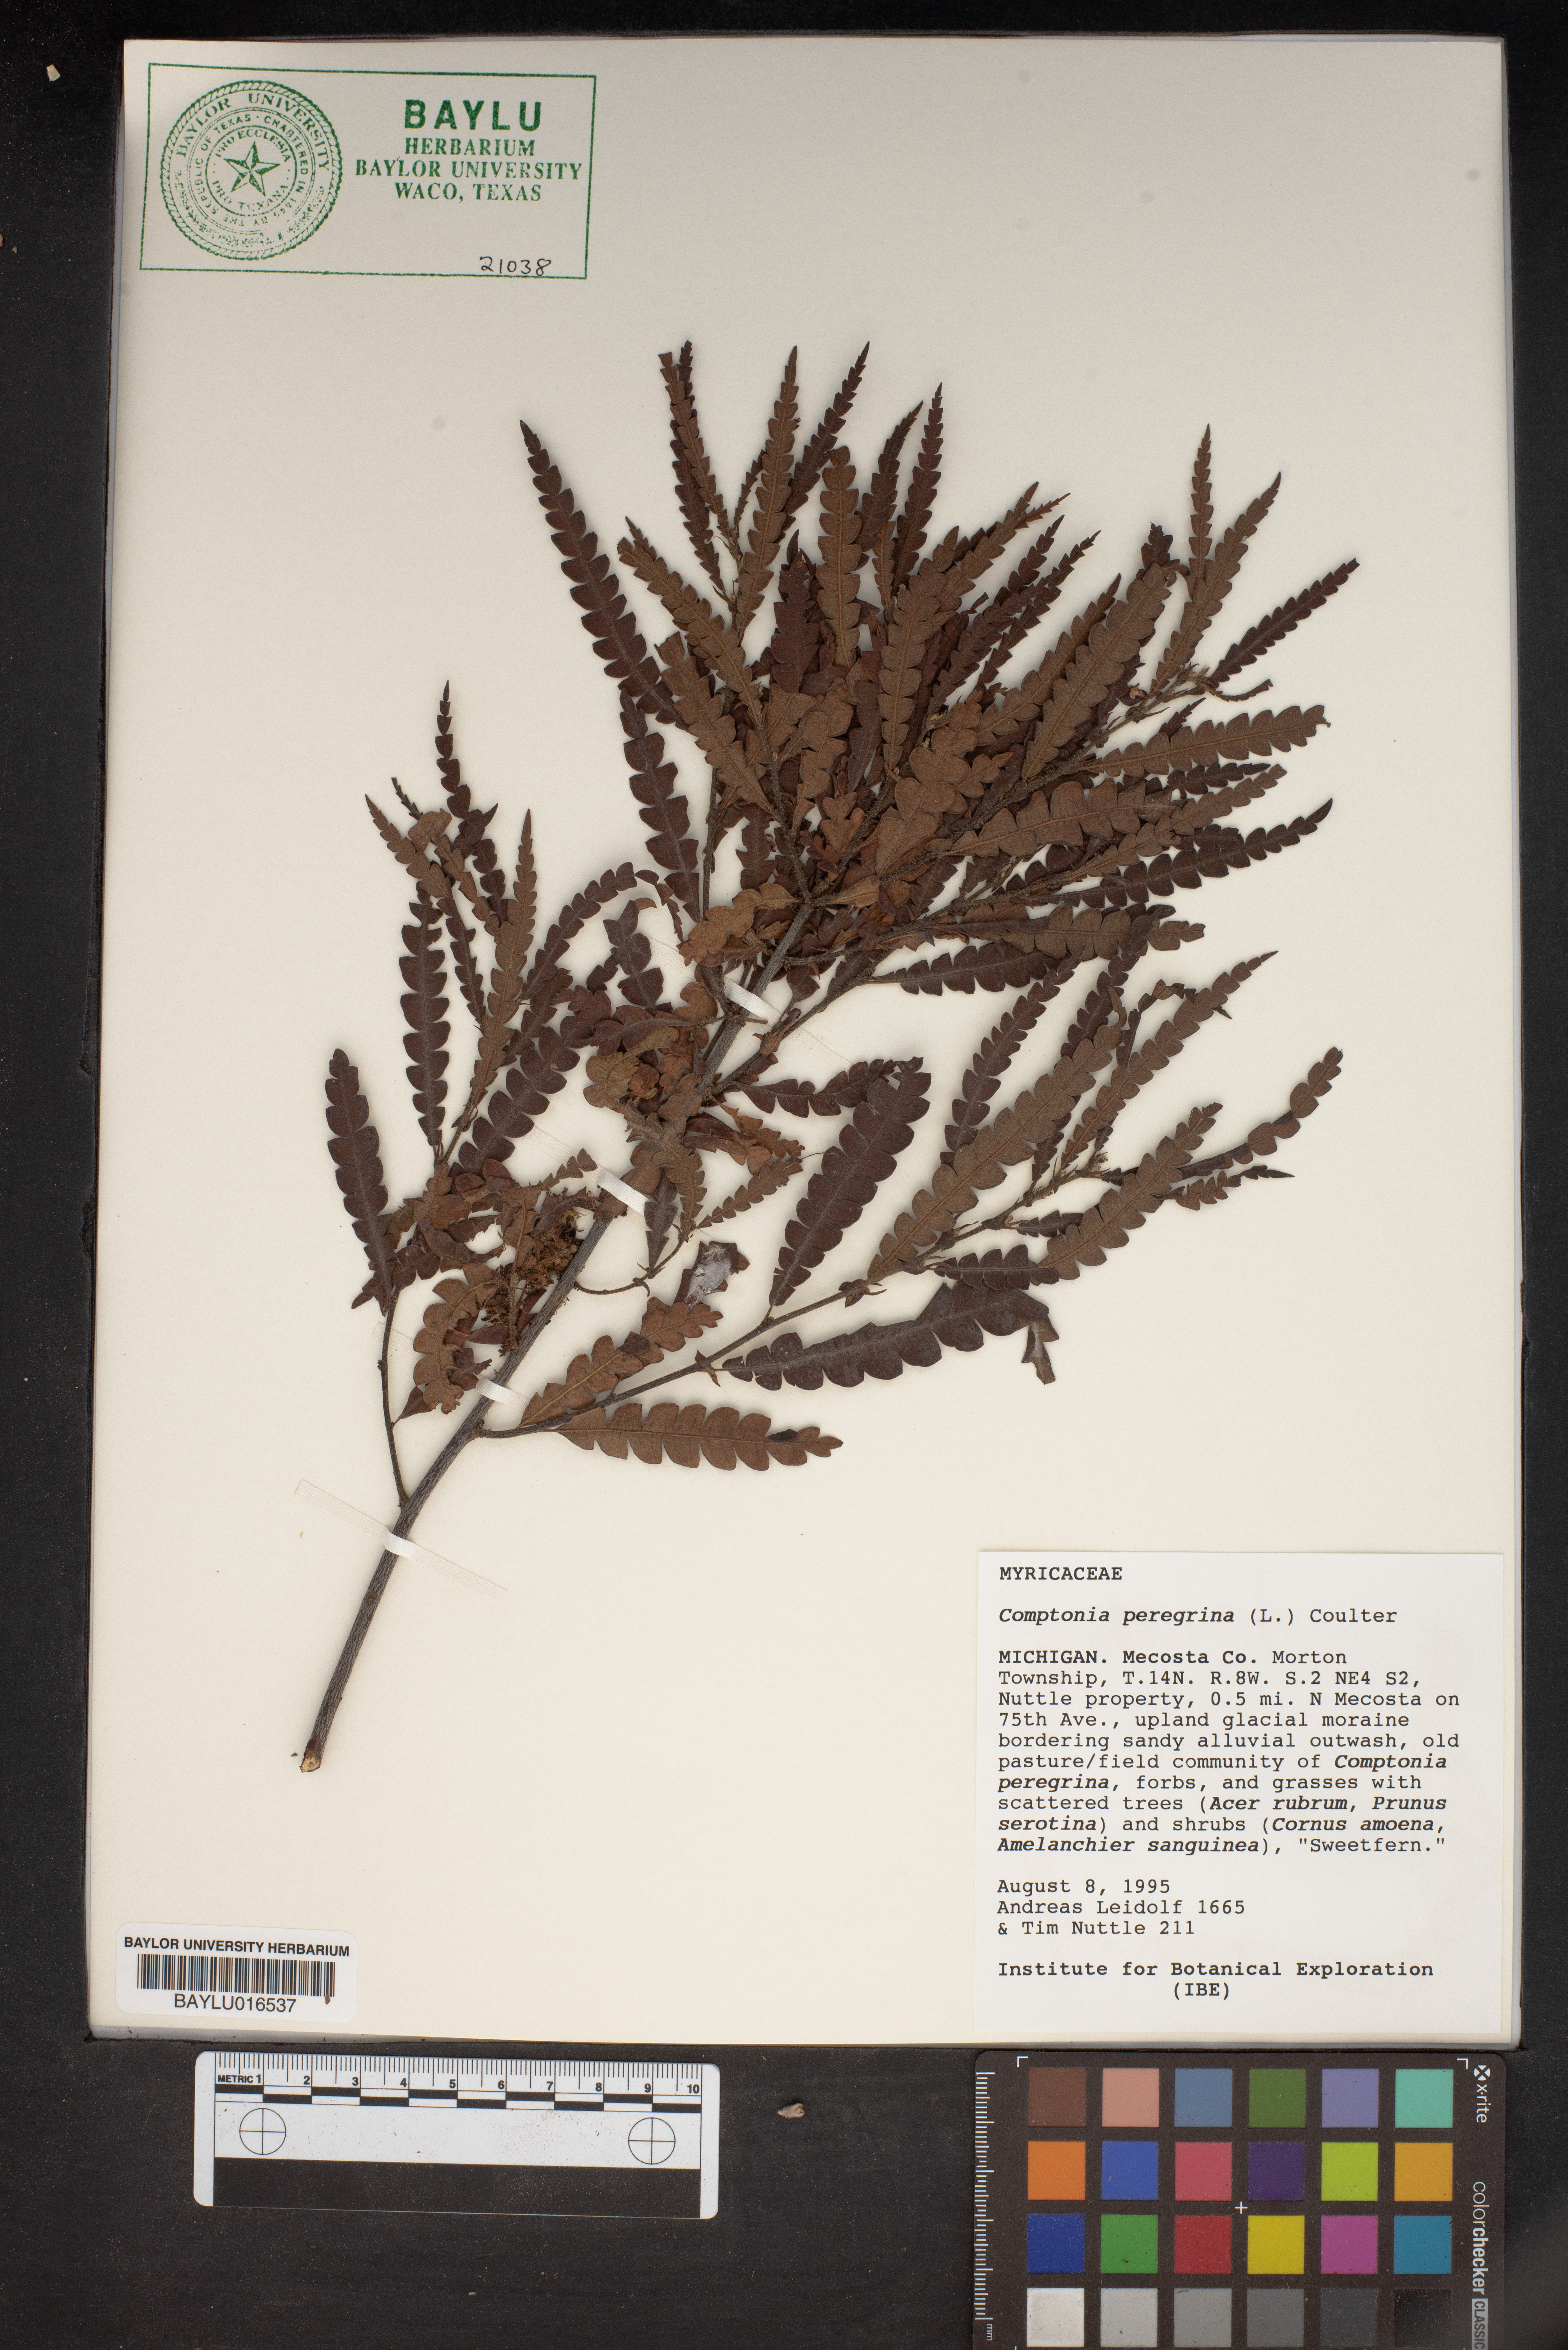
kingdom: Plantae
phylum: Tracheophyta
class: Magnoliopsida
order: Fagales
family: Myricaceae
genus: Comptonia
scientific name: Comptonia peregrina
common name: Sweet-fern
